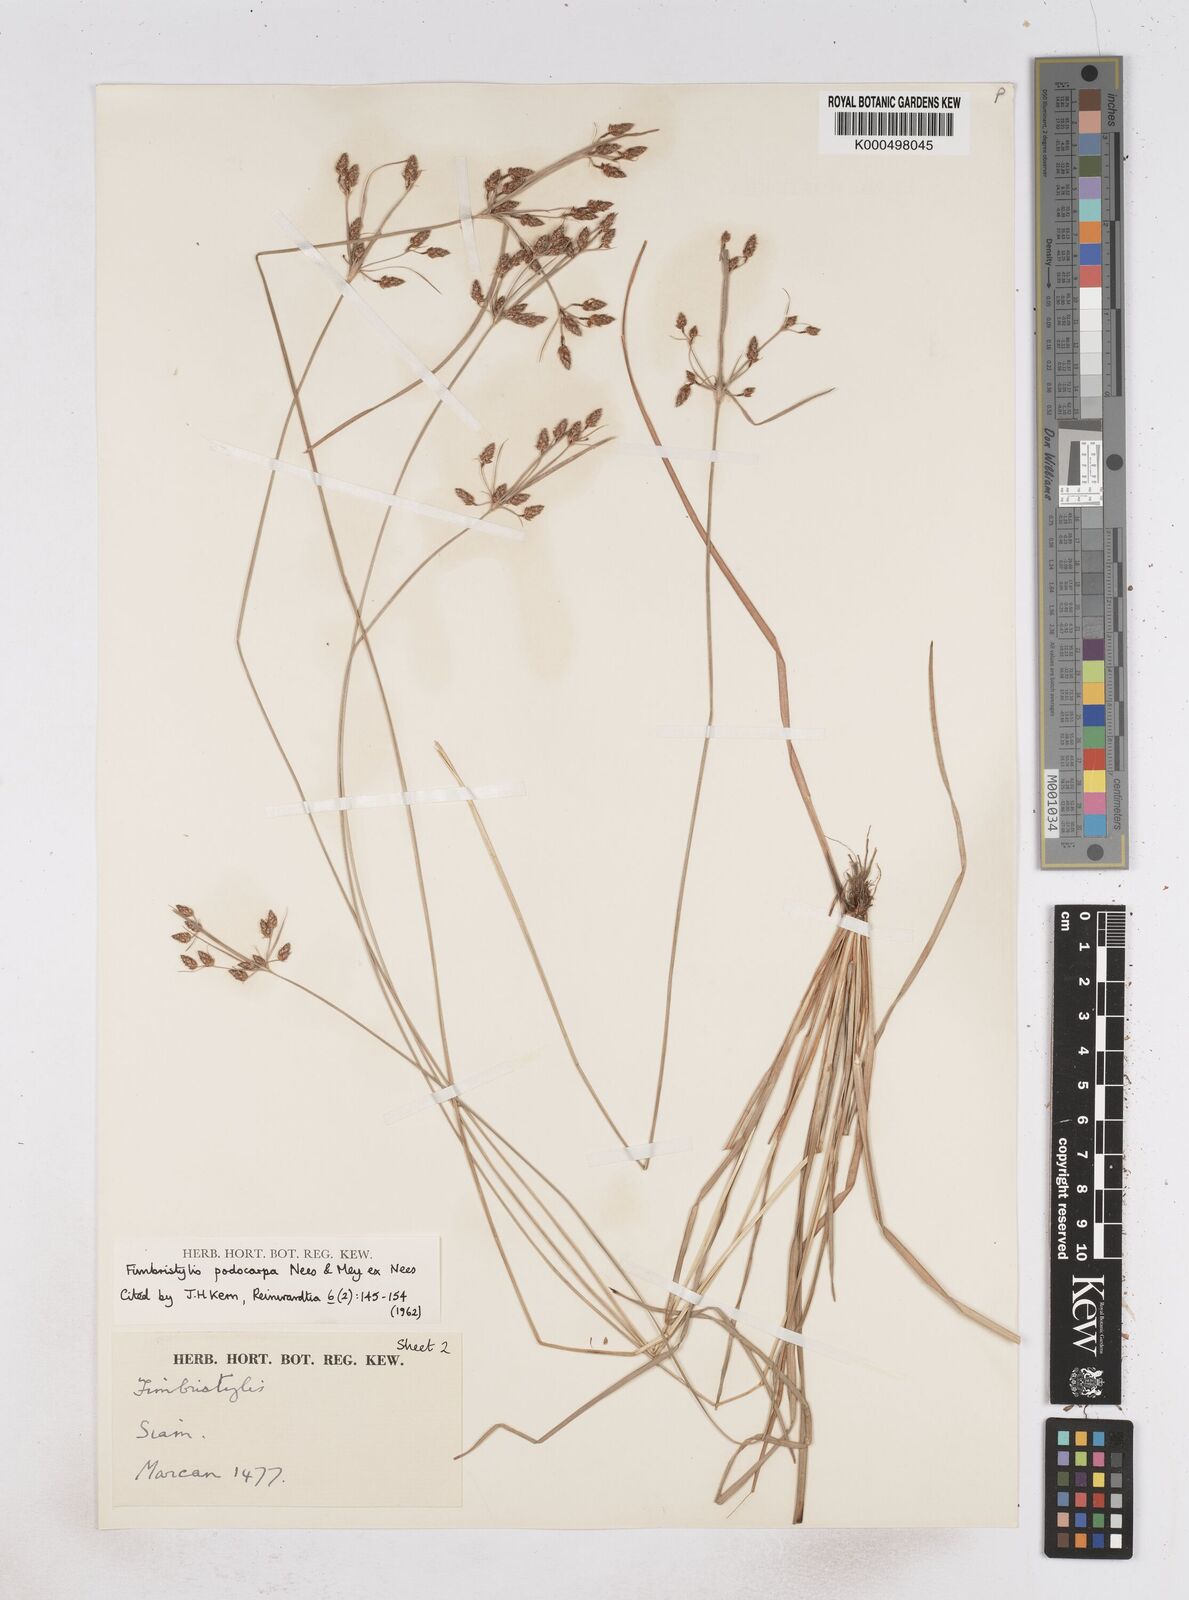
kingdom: Plantae
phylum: Tracheophyta
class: Liliopsida
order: Poales
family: Cyperaceae
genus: Fimbristylis
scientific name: Fimbristylis dichotoma
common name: Forked fimbry
